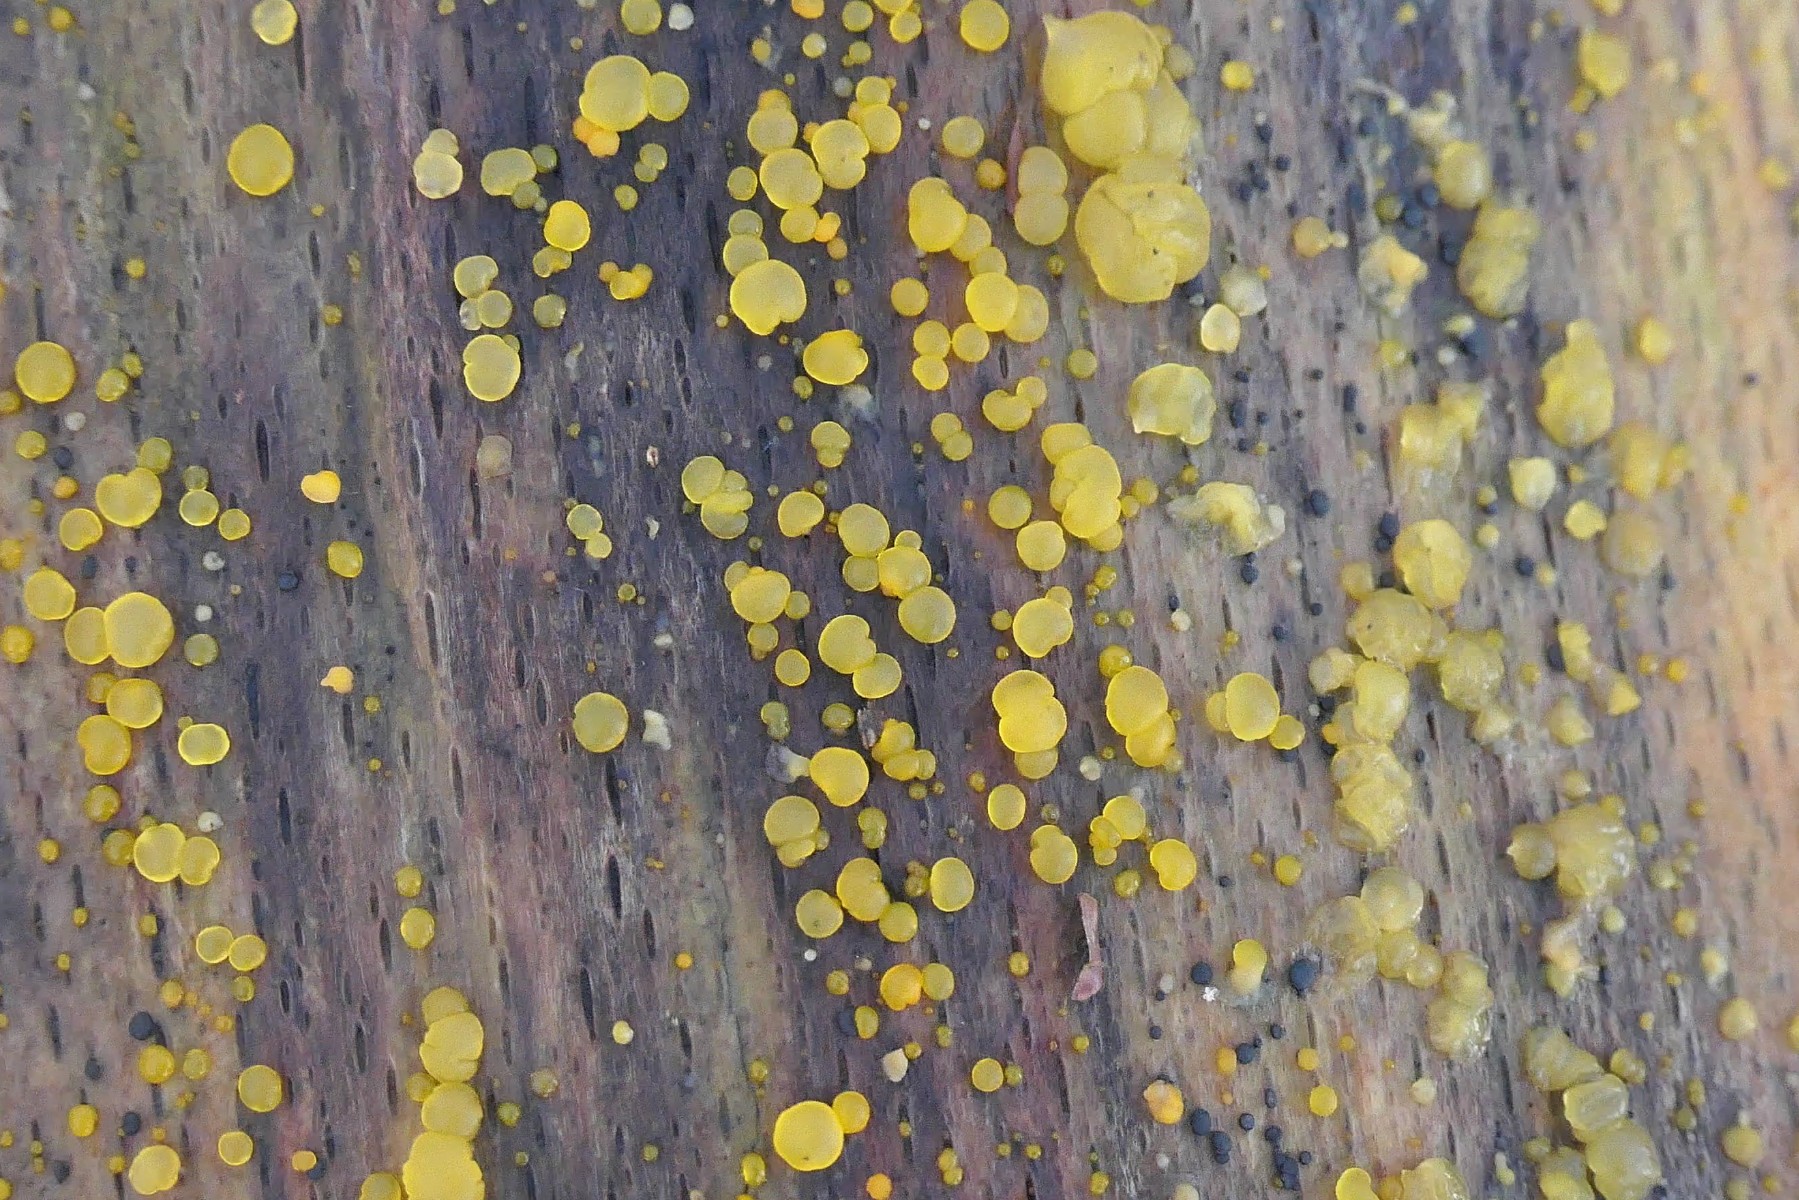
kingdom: Fungi
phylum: Basidiomycota
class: Dacrymycetes
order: Dacrymycetales
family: Dacrymycetaceae
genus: Dacrymyces
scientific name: Dacrymyces stillatus
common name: almindelig tåresvamp
